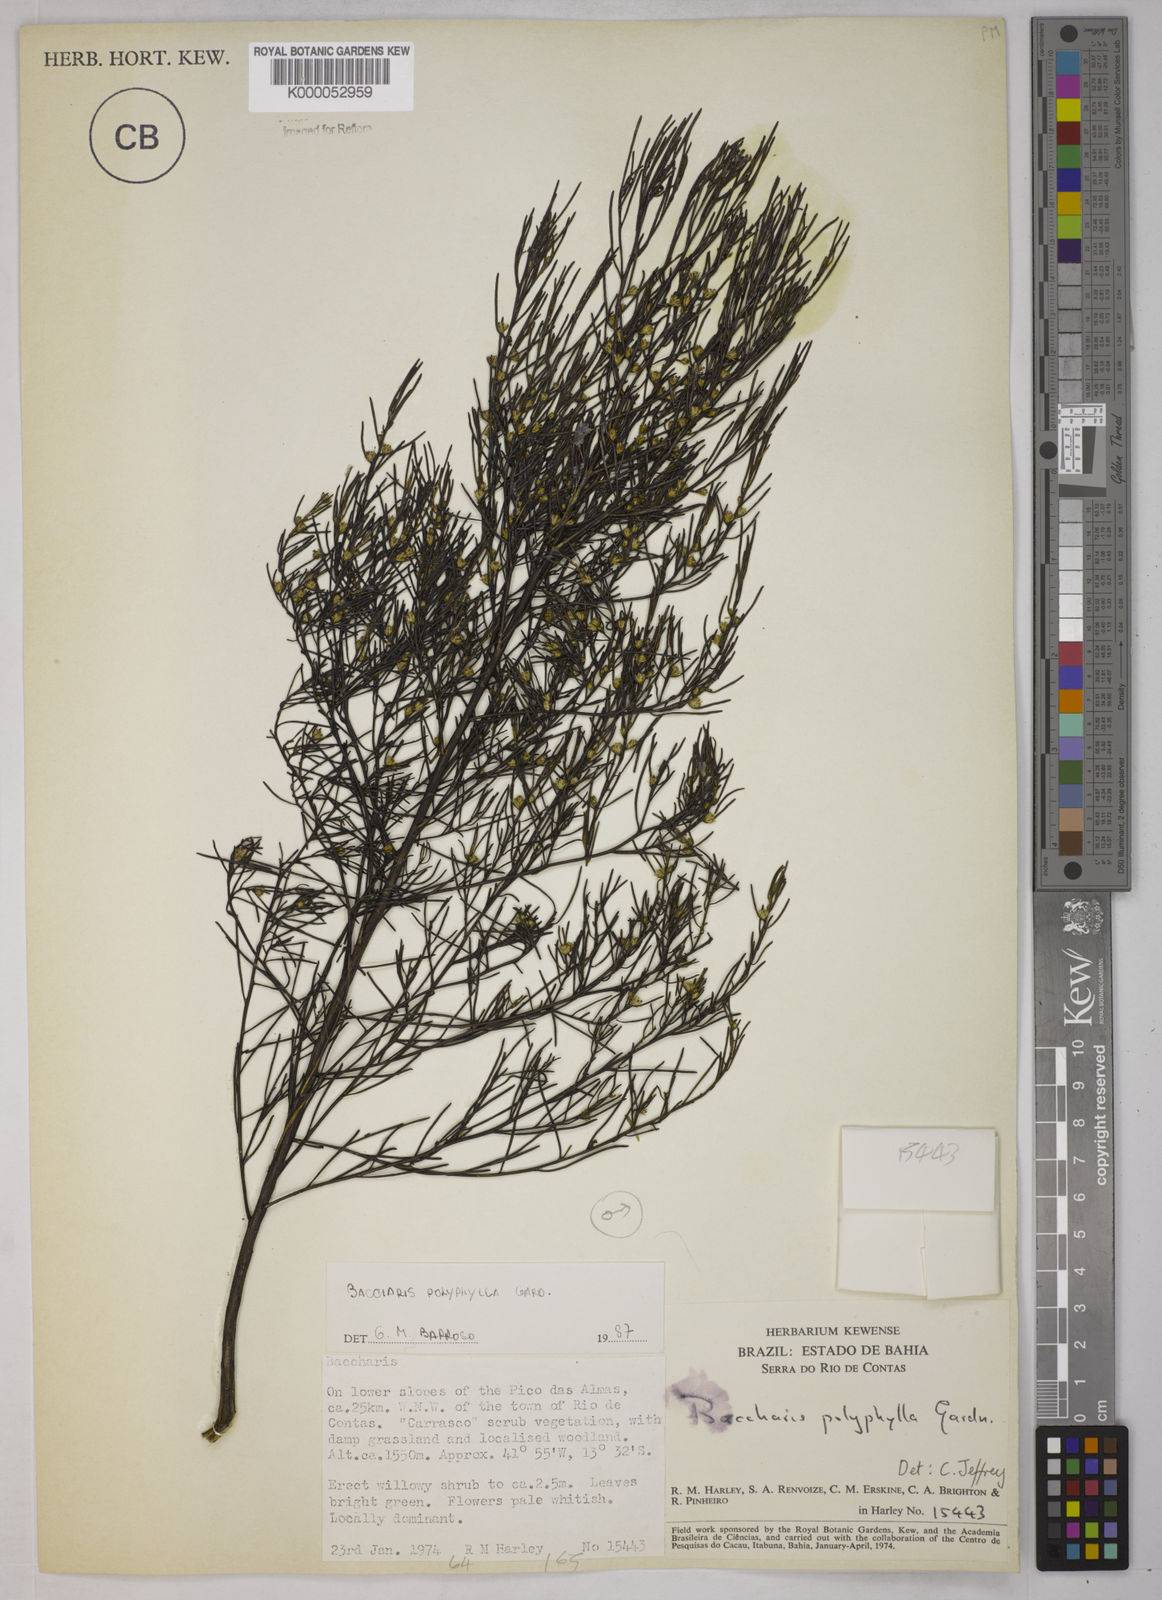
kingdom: Plantae
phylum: Tracheophyta
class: Magnoliopsida
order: Asterales
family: Asteraceae
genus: Baccharis
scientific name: Baccharis polyphylla
